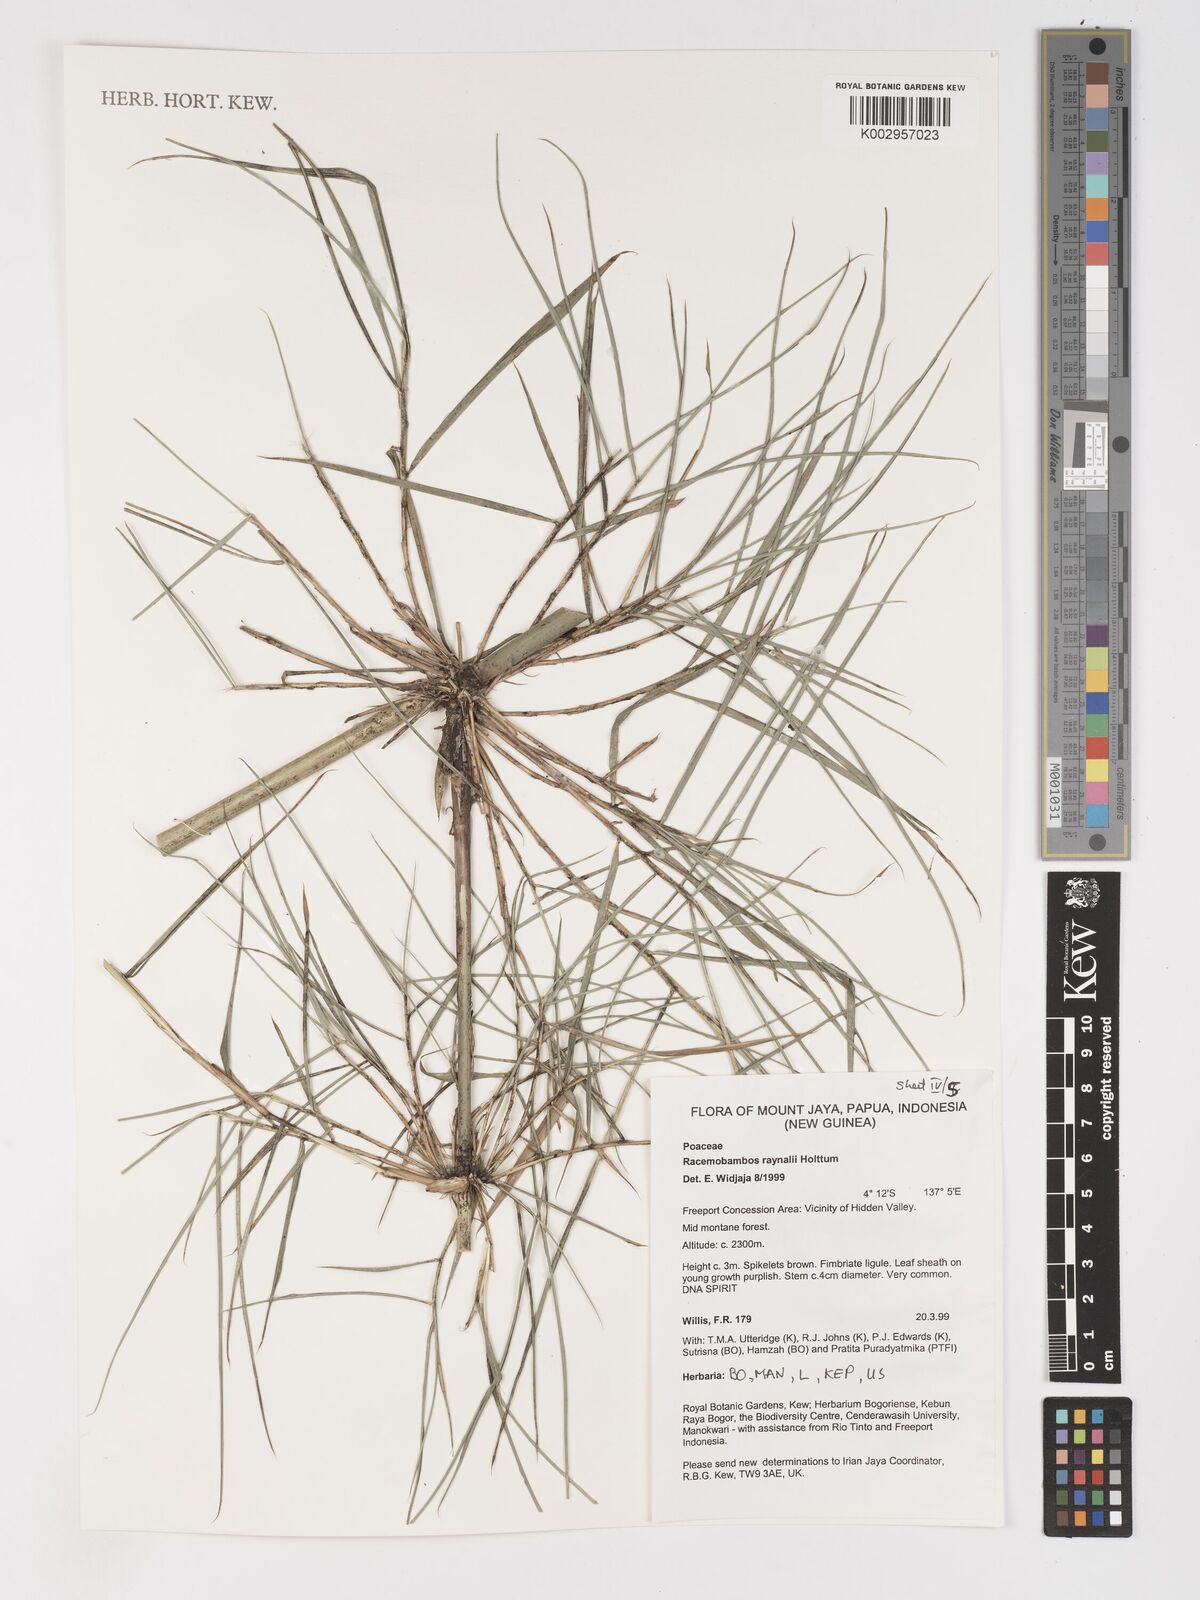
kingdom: Plantae
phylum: Tracheophyta
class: Liliopsida
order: Poales
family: Poaceae
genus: Racemobambos
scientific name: Racemobambos raynalii
